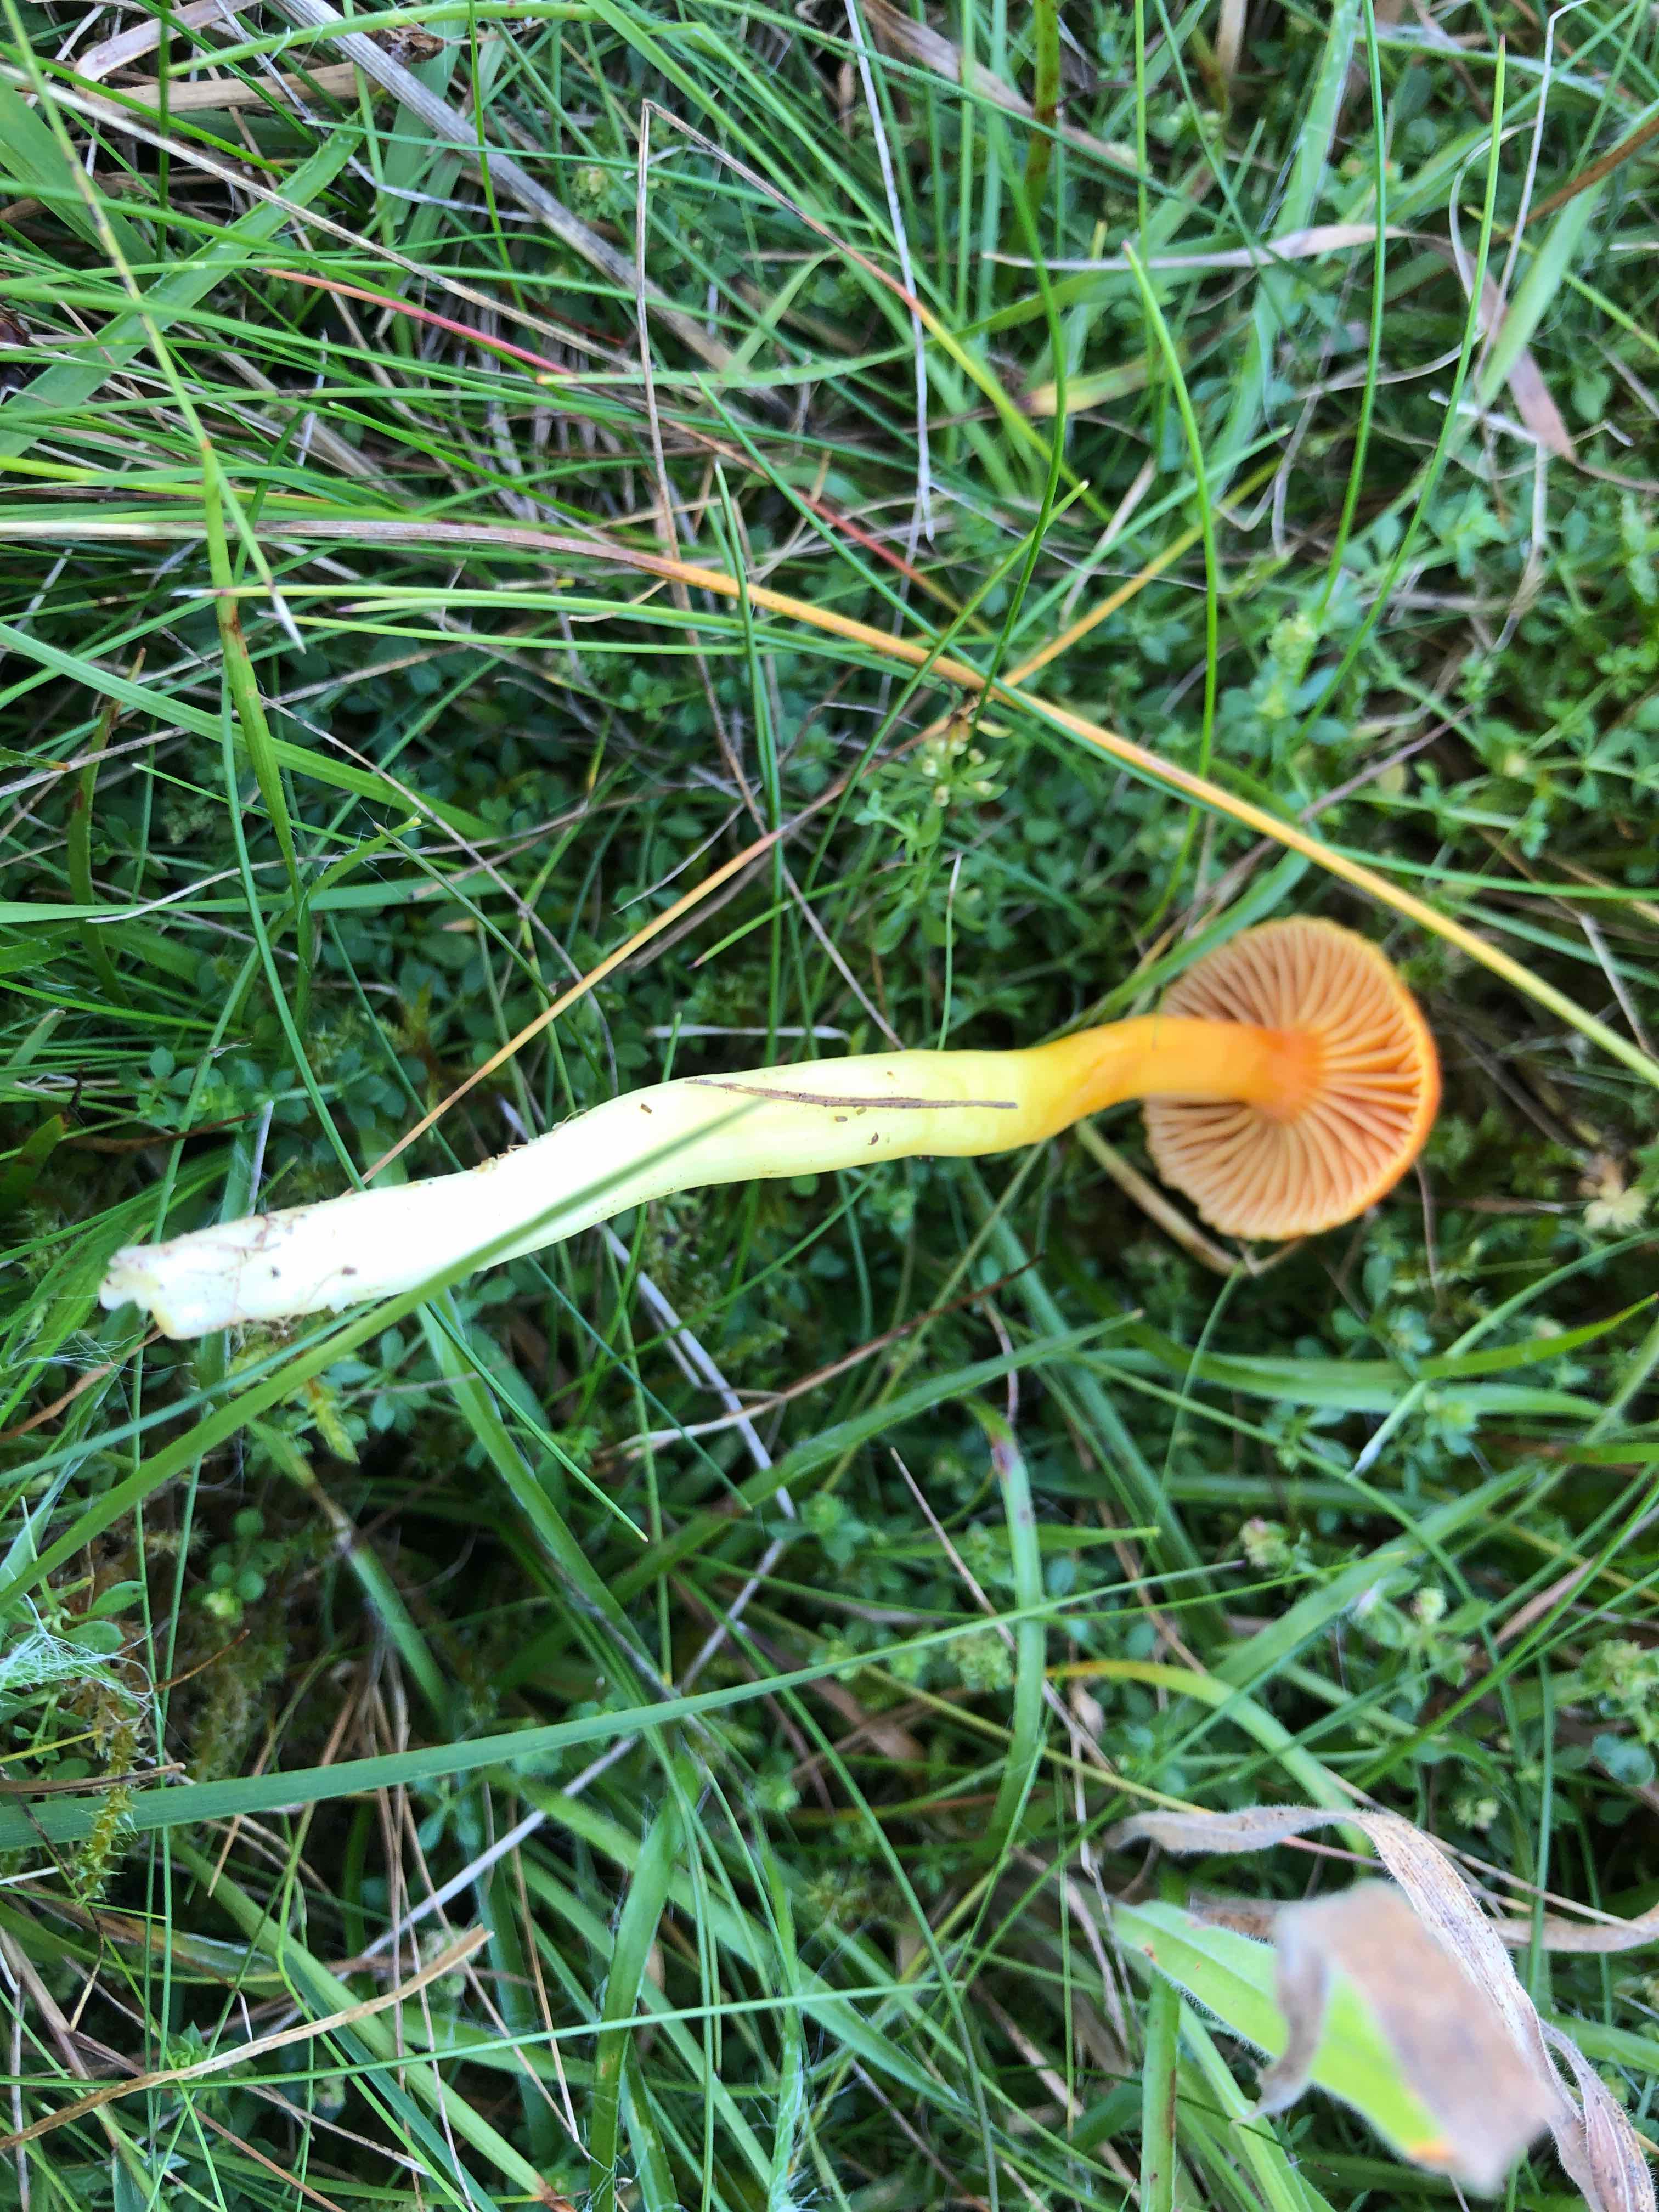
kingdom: Fungi
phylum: Basidiomycota
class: Agaricomycetes
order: Agaricales
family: Hygrophoraceae
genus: Hygrocybe
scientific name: Hygrocybe
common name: vokshat
